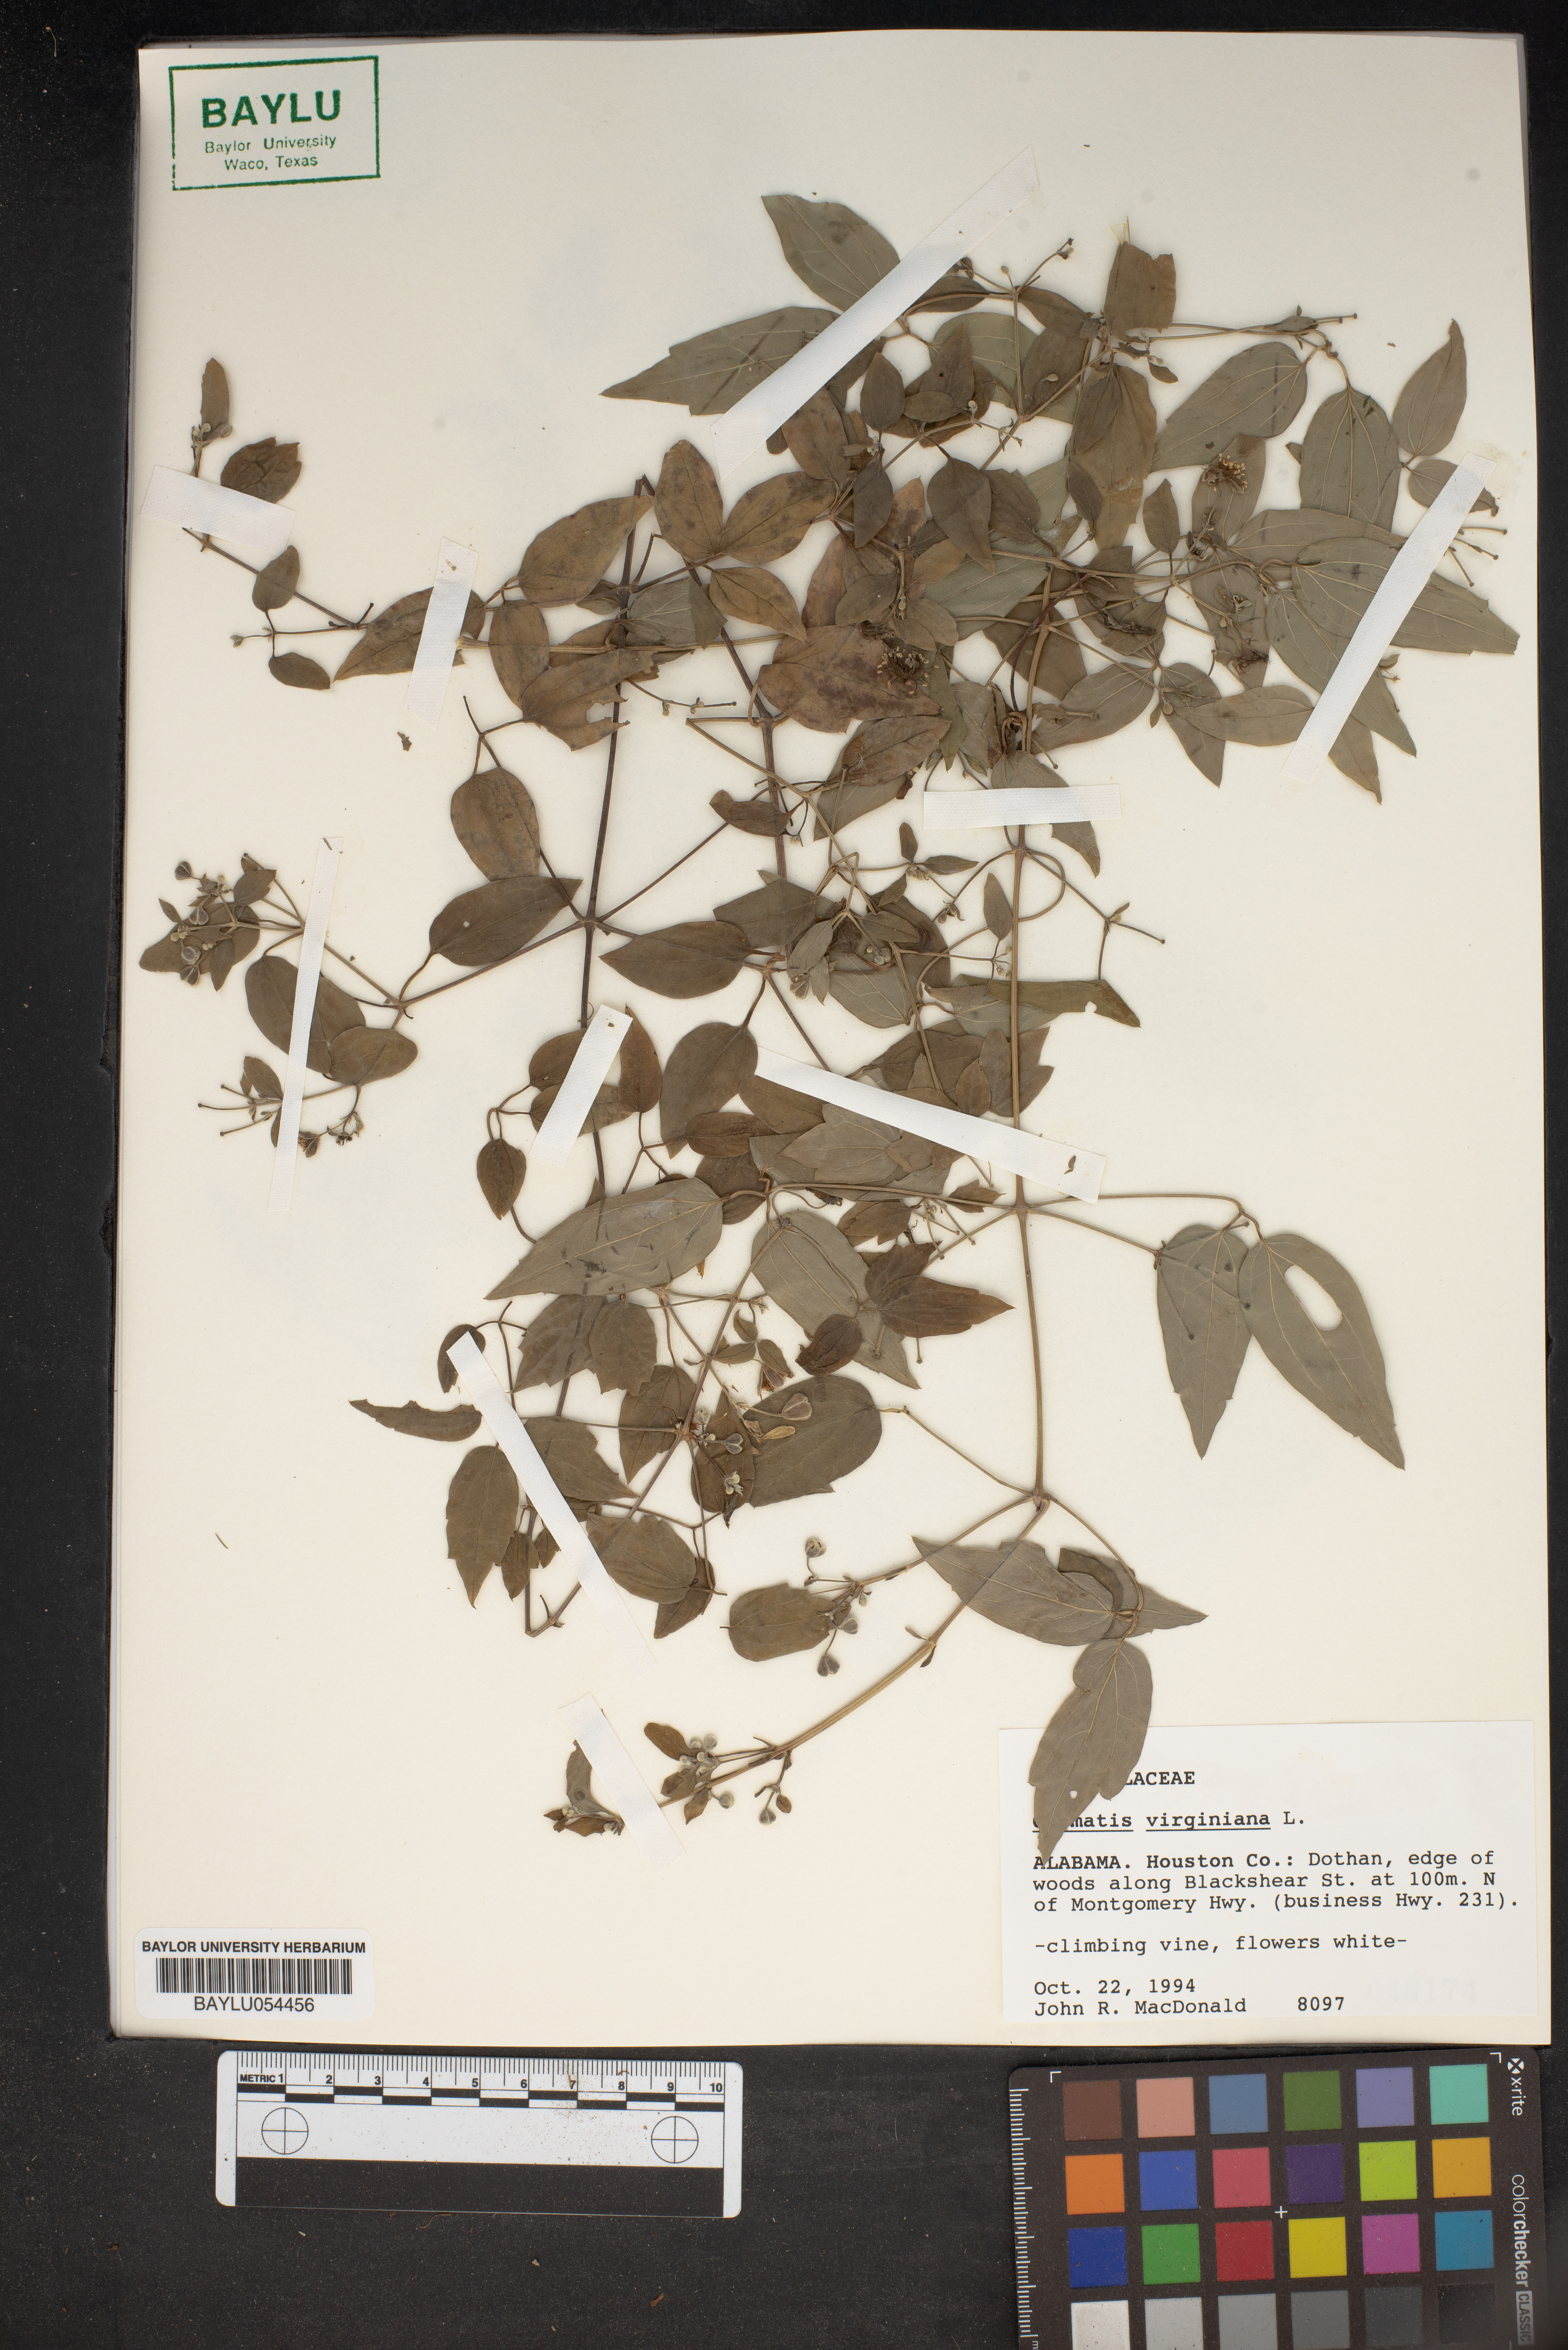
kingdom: Plantae
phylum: Tracheophyta
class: Magnoliopsida
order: Ranunculales
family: Ranunculaceae
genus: Clematis
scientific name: Clematis virginiana
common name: Virgin's-bower
